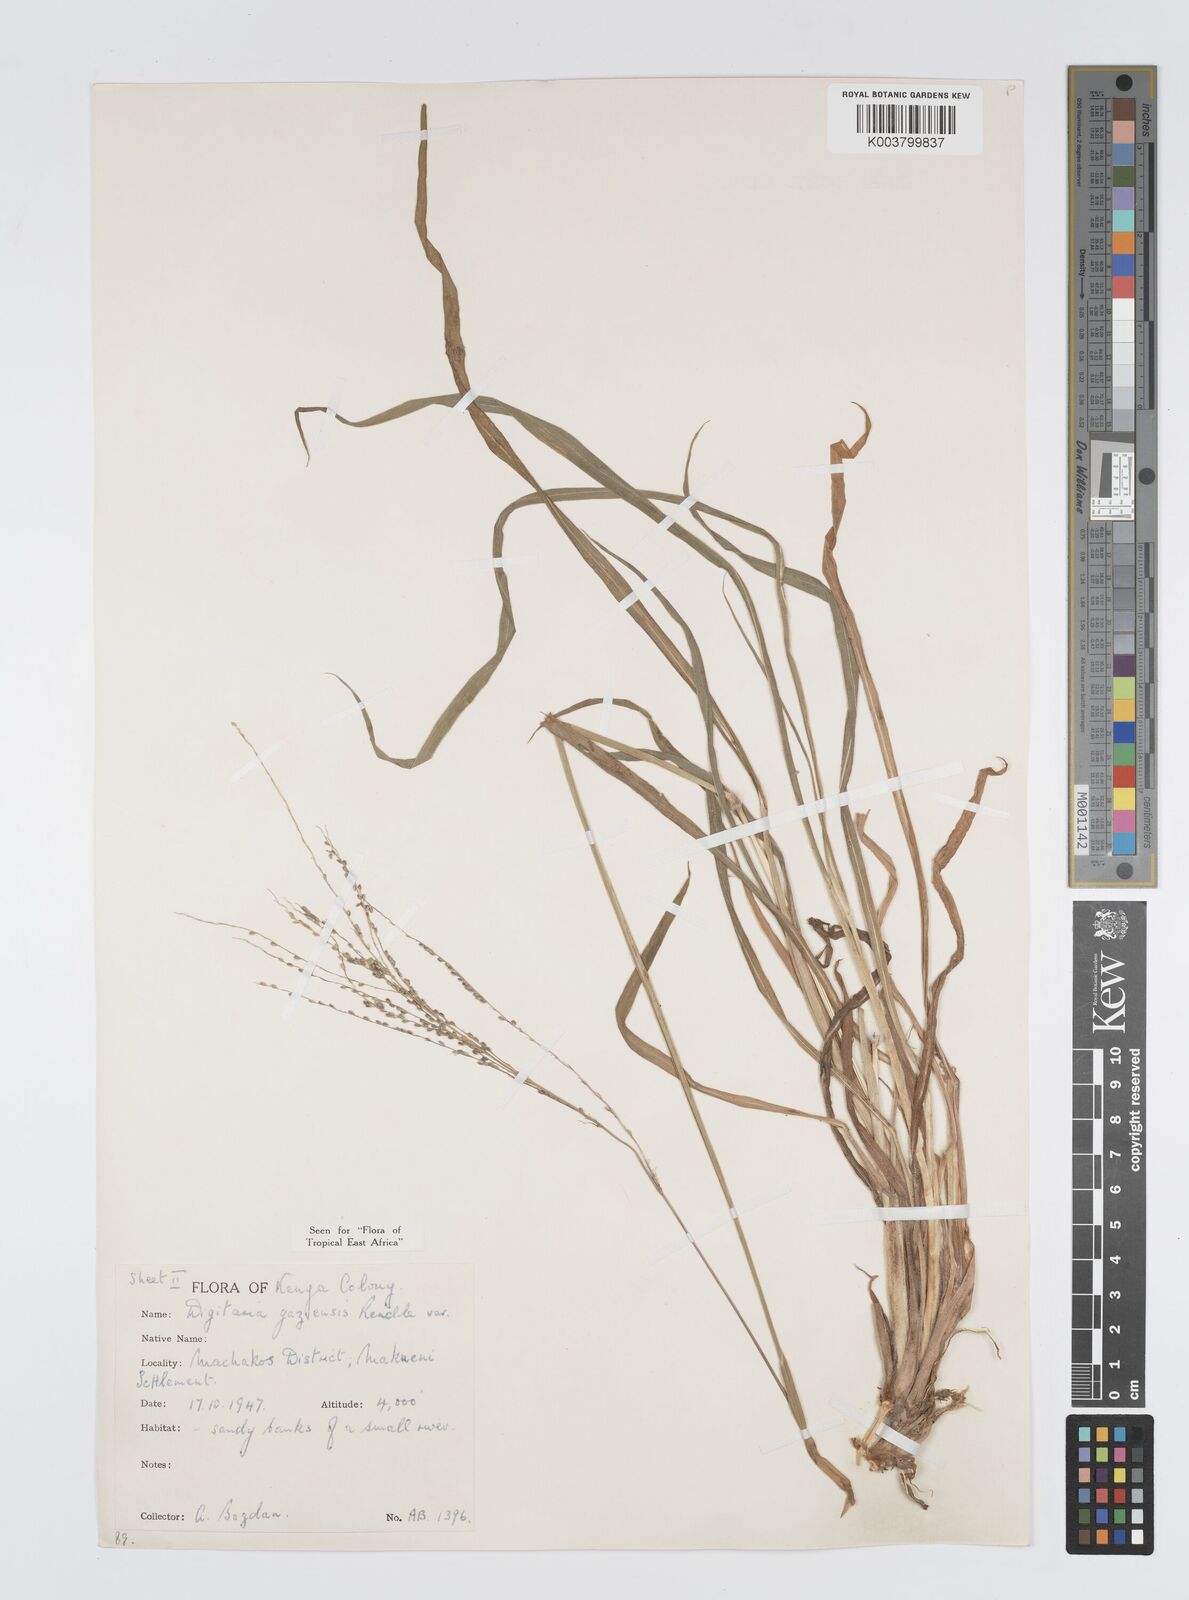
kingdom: Plantae
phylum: Tracheophyta
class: Liliopsida
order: Poales
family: Poaceae
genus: Digitaria
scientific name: Digitaria gazensis
